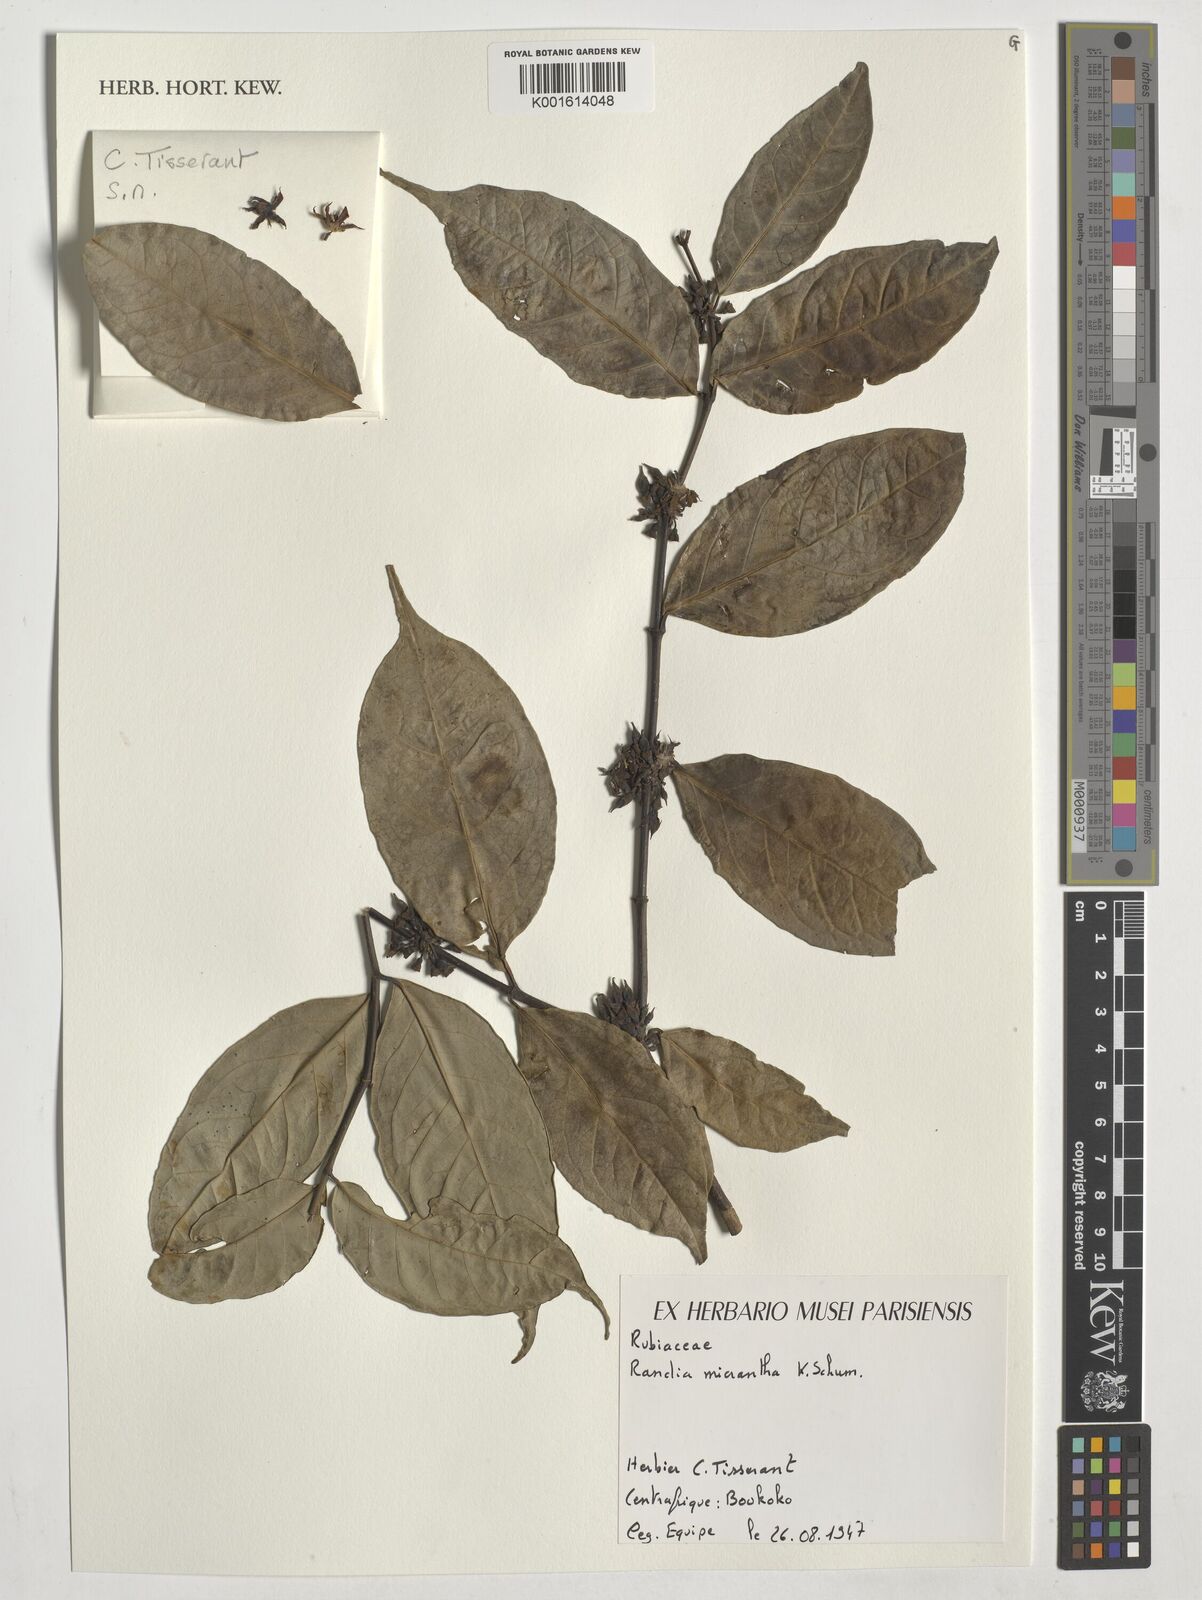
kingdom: Plantae
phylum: Tracheophyta
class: Magnoliopsida
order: Gentianales
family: Rubiaceae
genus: Aidia
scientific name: Aidia micrantha
